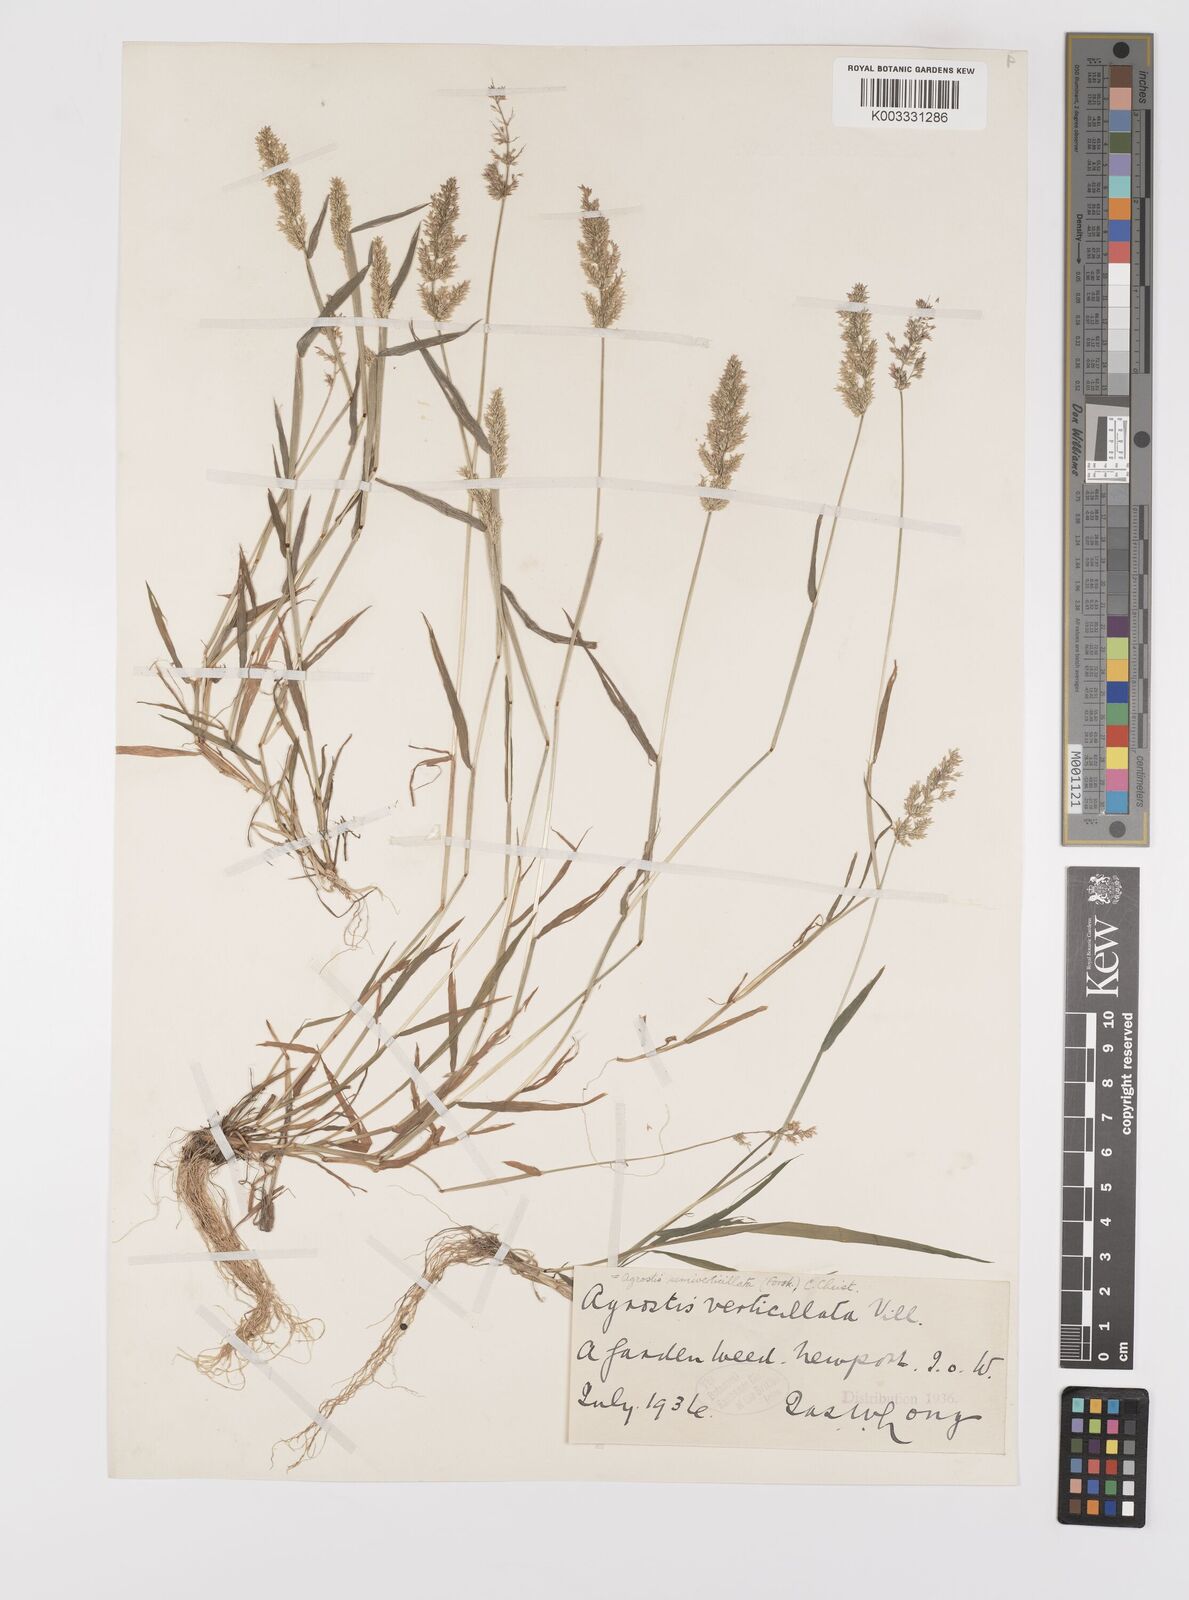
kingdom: Plantae
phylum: Tracheophyta
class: Liliopsida
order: Poales
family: Poaceae
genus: Polypogon
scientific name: Polypogon viridis
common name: Water bent
